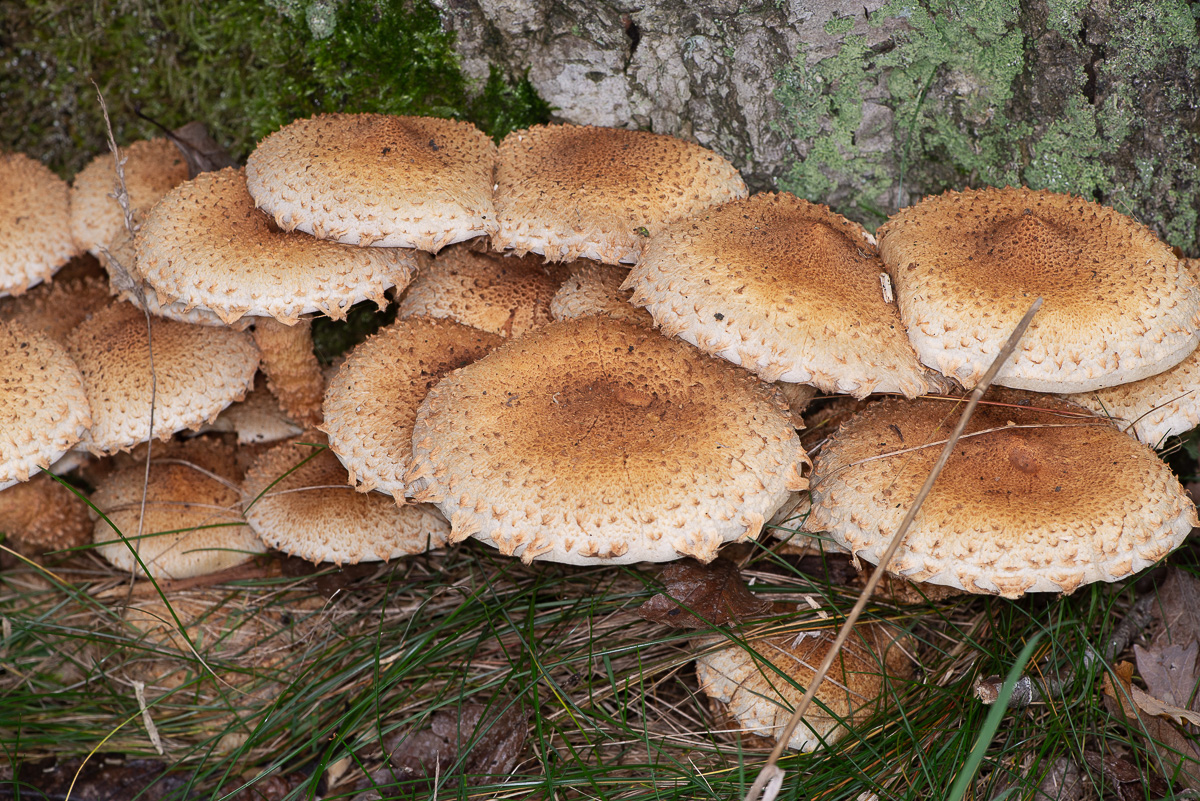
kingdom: Fungi
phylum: Basidiomycota
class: Agaricomycetes
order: Agaricales
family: Strophariaceae
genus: Pholiota
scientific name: Pholiota squarrosa
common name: krumskællet skælhat
